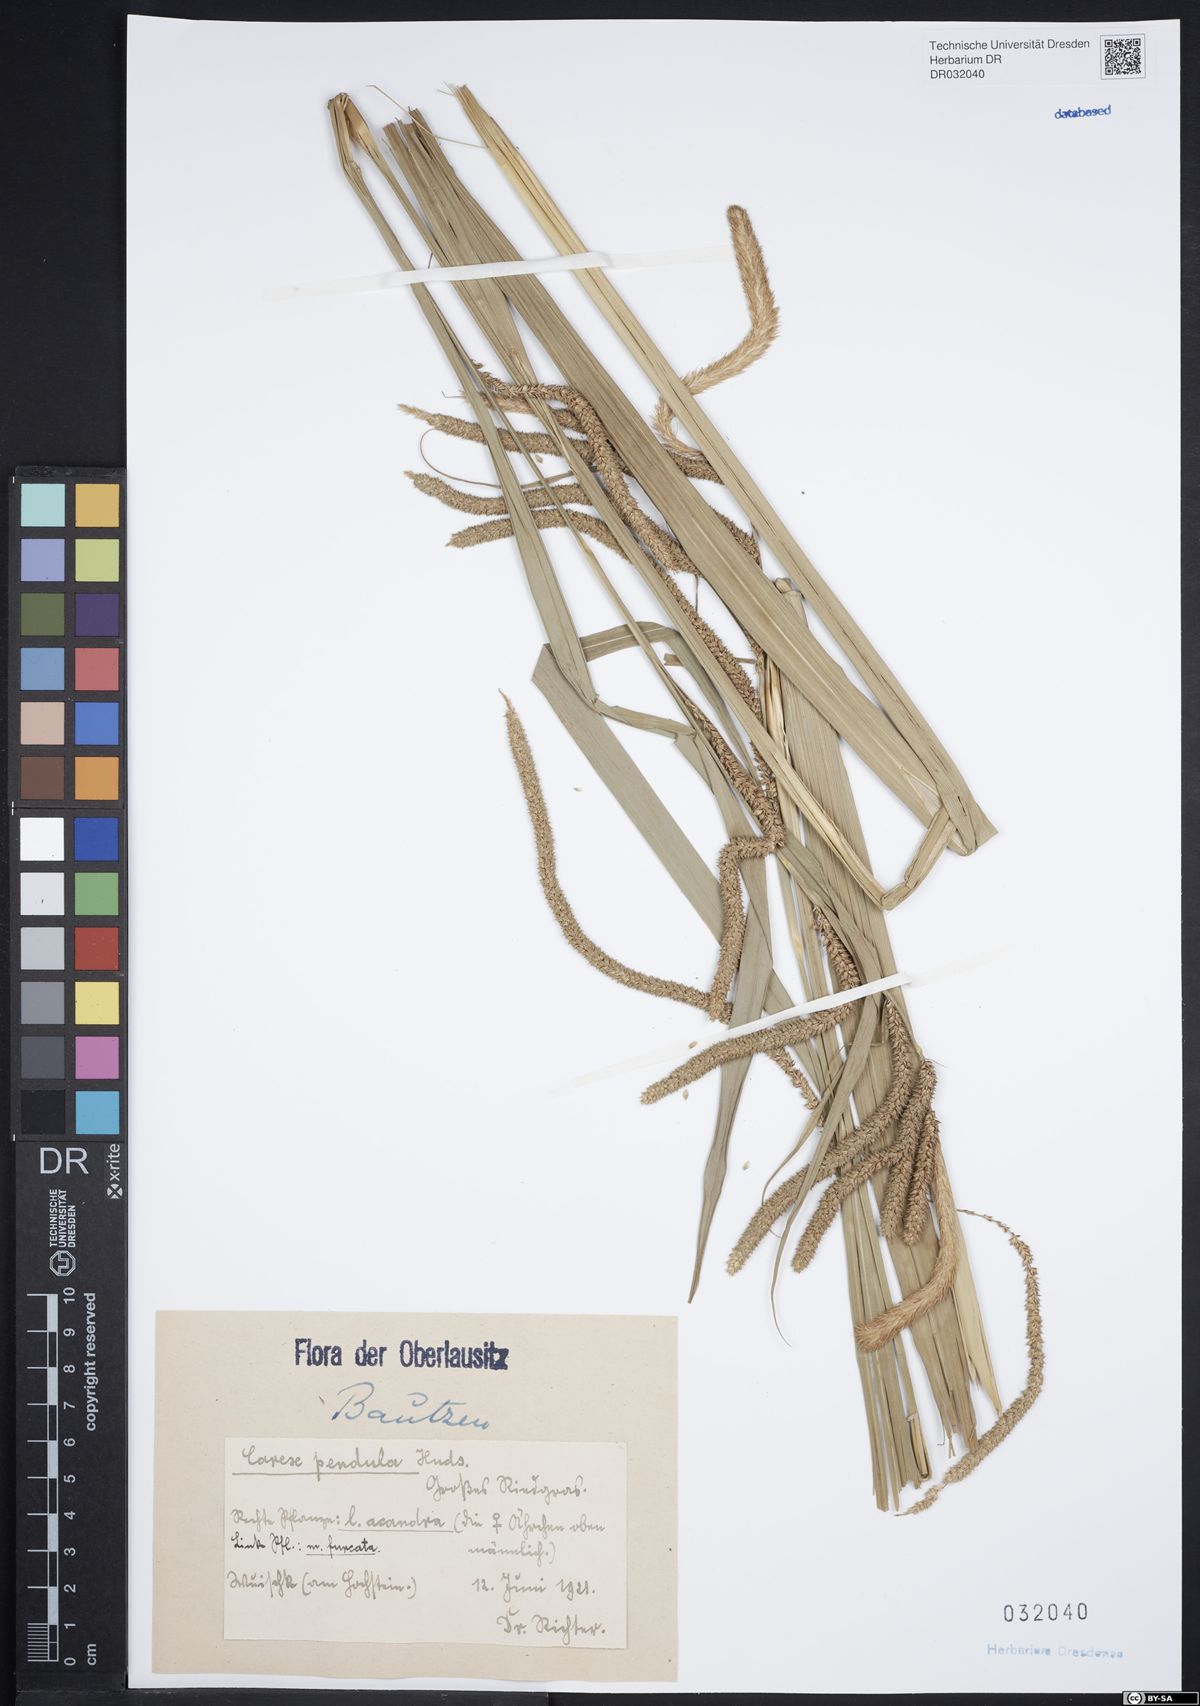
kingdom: Plantae
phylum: Tracheophyta
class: Liliopsida
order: Poales
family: Cyperaceae
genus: Carex
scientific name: Carex pendula
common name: Pendulous sedge
